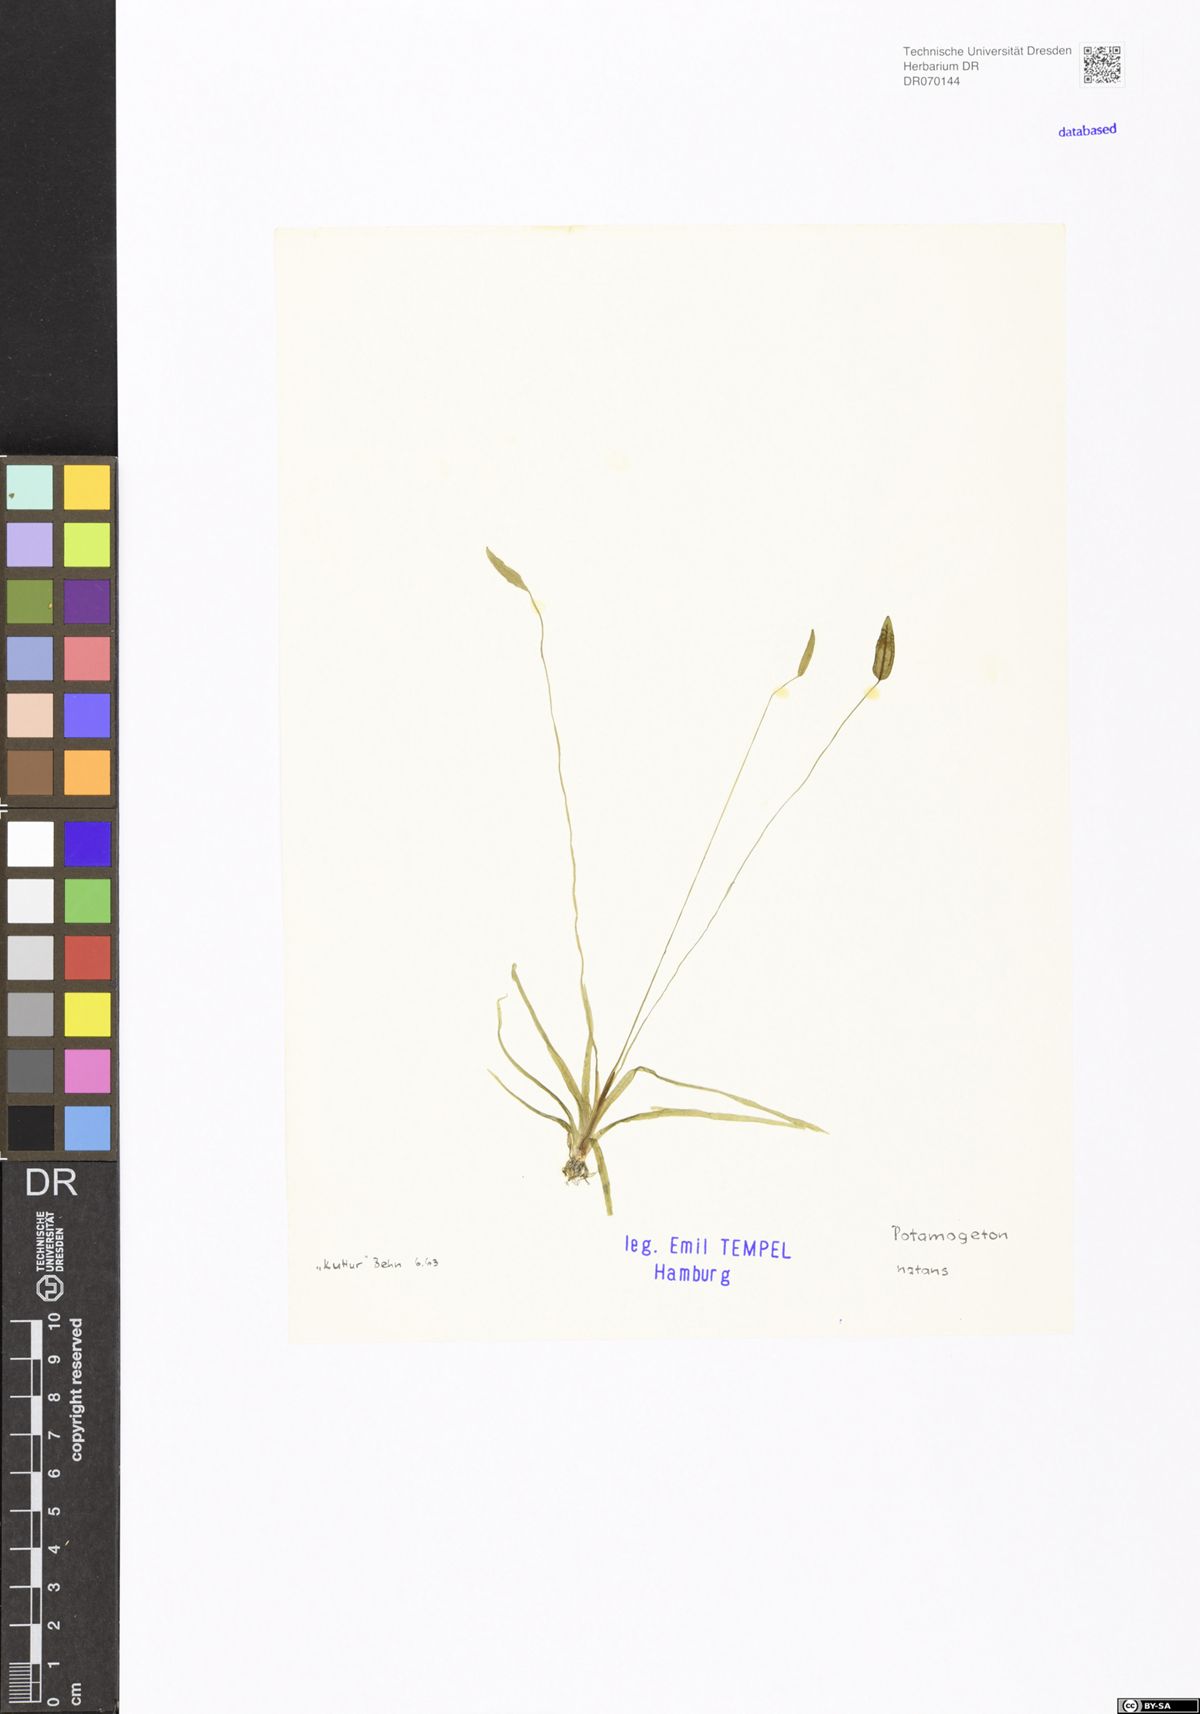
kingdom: Plantae
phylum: Tracheophyta
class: Liliopsida
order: Alismatales
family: Potamogetonaceae
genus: Potamogeton
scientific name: Potamogeton natans
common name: Broad-leaved pondweed
